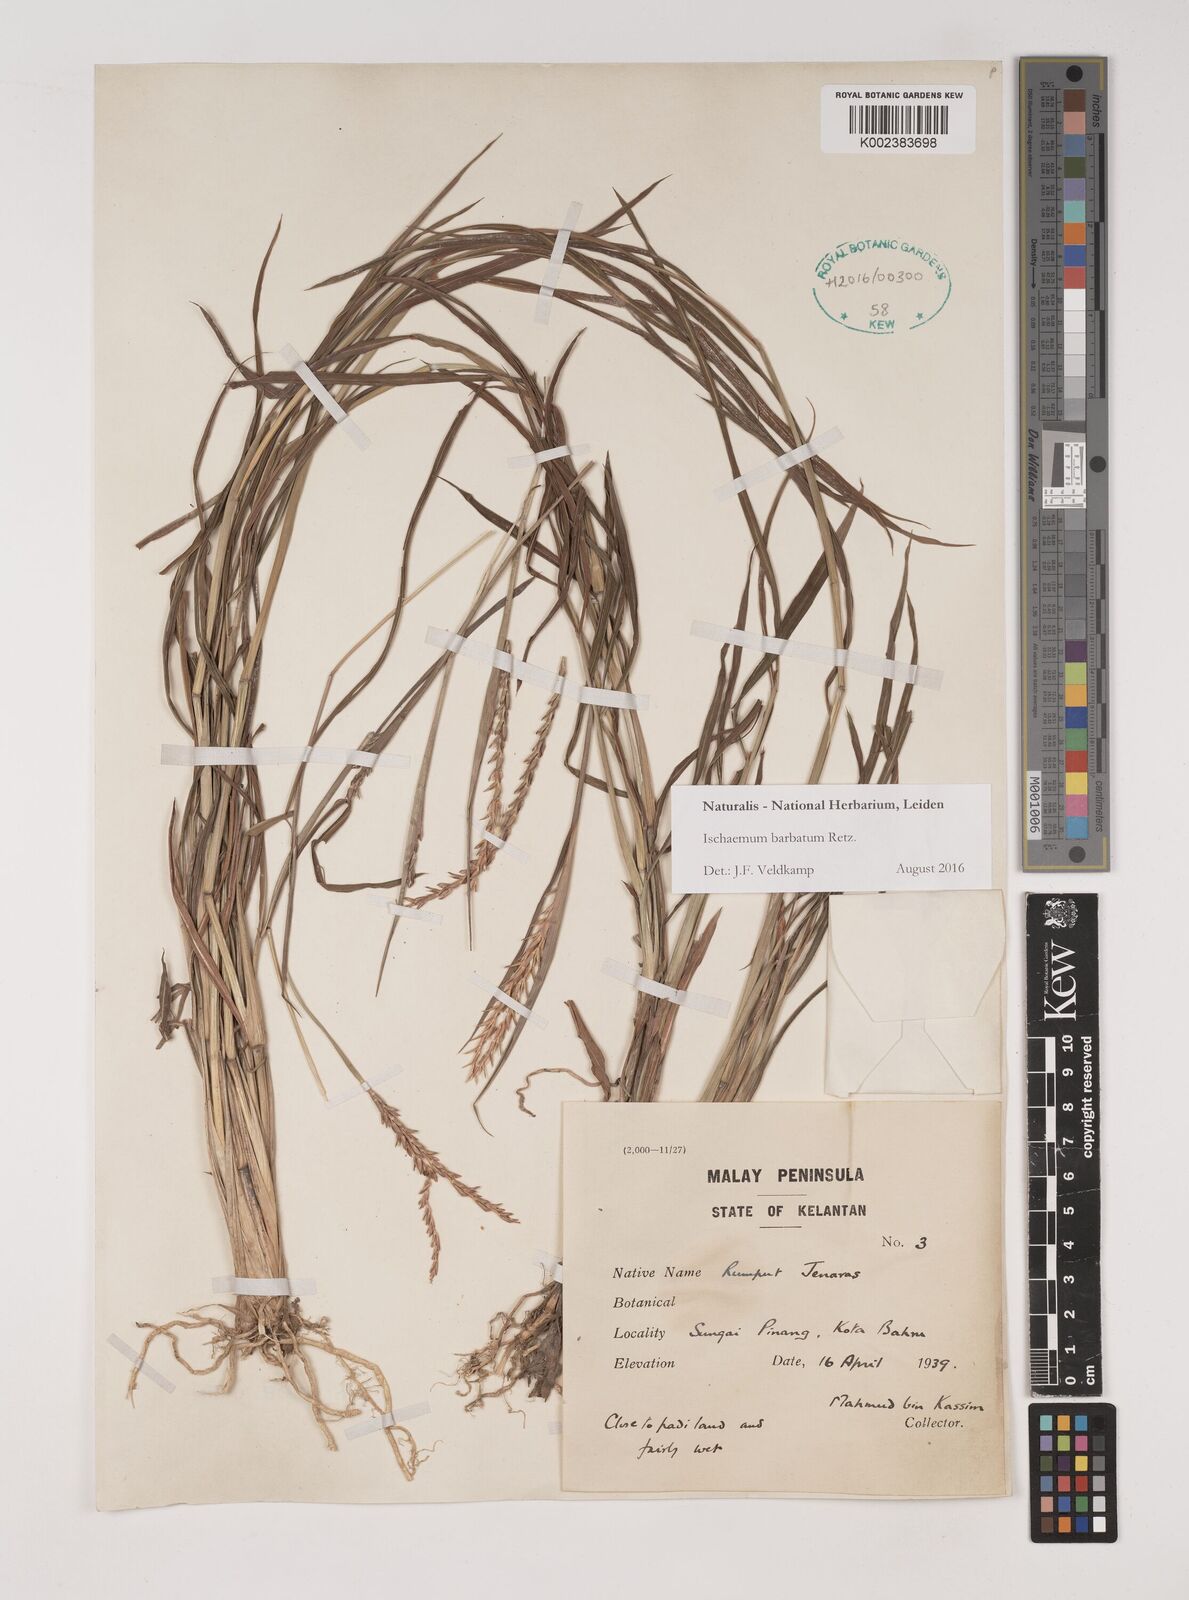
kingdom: Plantae
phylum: Tracheophyta
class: Liliopsida
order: Poales
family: Poaceae
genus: Ischaemum
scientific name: Ischaemum barbatum
